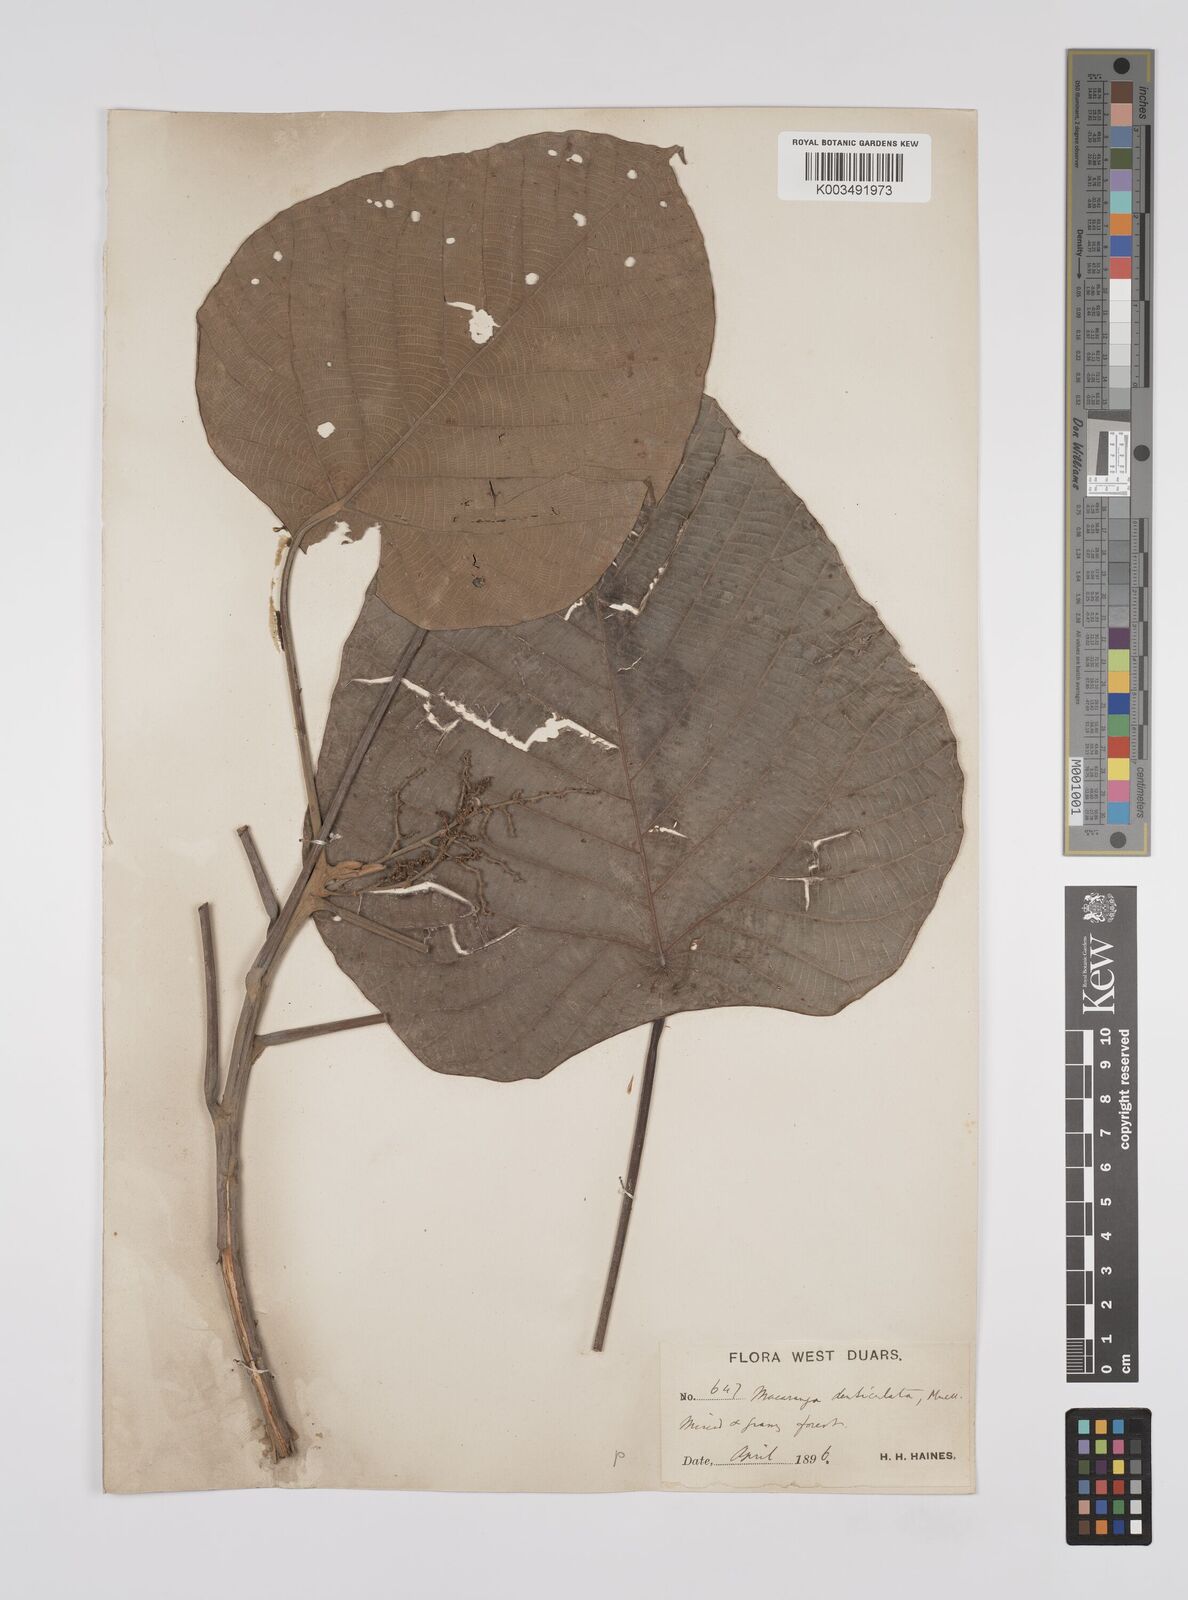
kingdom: Plantae
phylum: Tracheophyta
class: Magnoliopsida
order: Malpighiales
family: Euphorbiaceae
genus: Macaranga
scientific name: Macaranga denticulata
